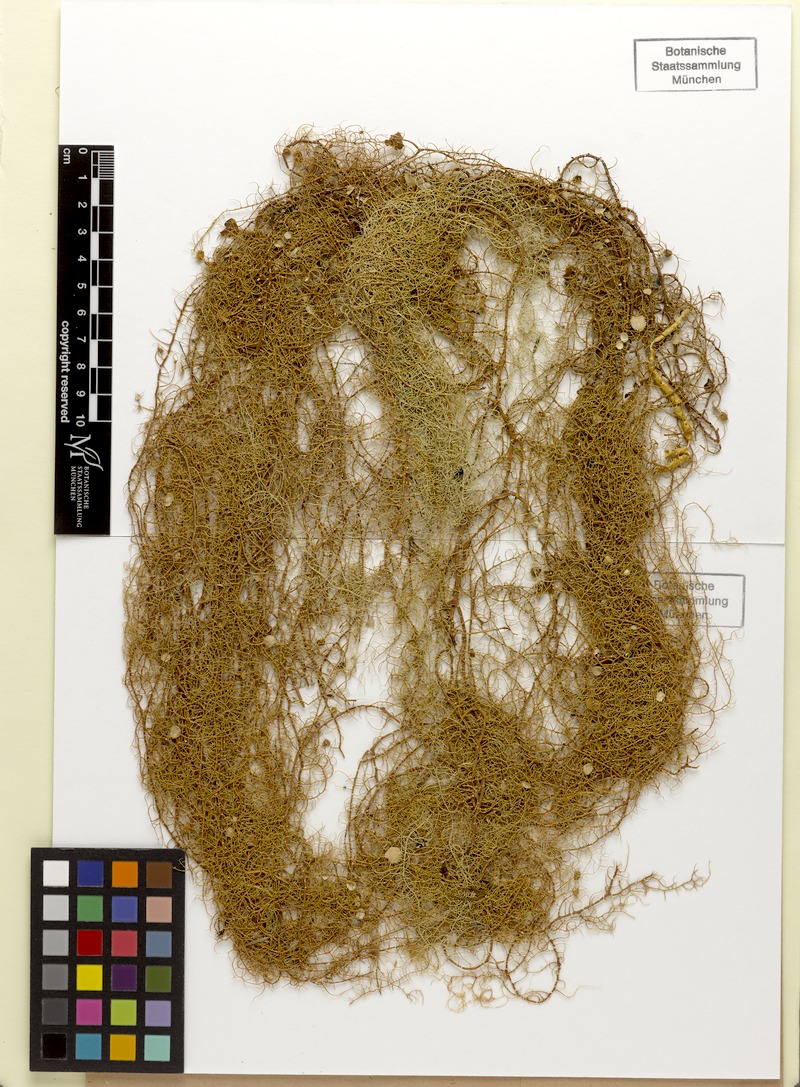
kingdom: Fungi
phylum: Ascomycota
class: Lecanoromycetes
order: Lecanorales
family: Parmeliaceae
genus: Xanthoparmelia
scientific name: Xanthoparmelia amplexula
